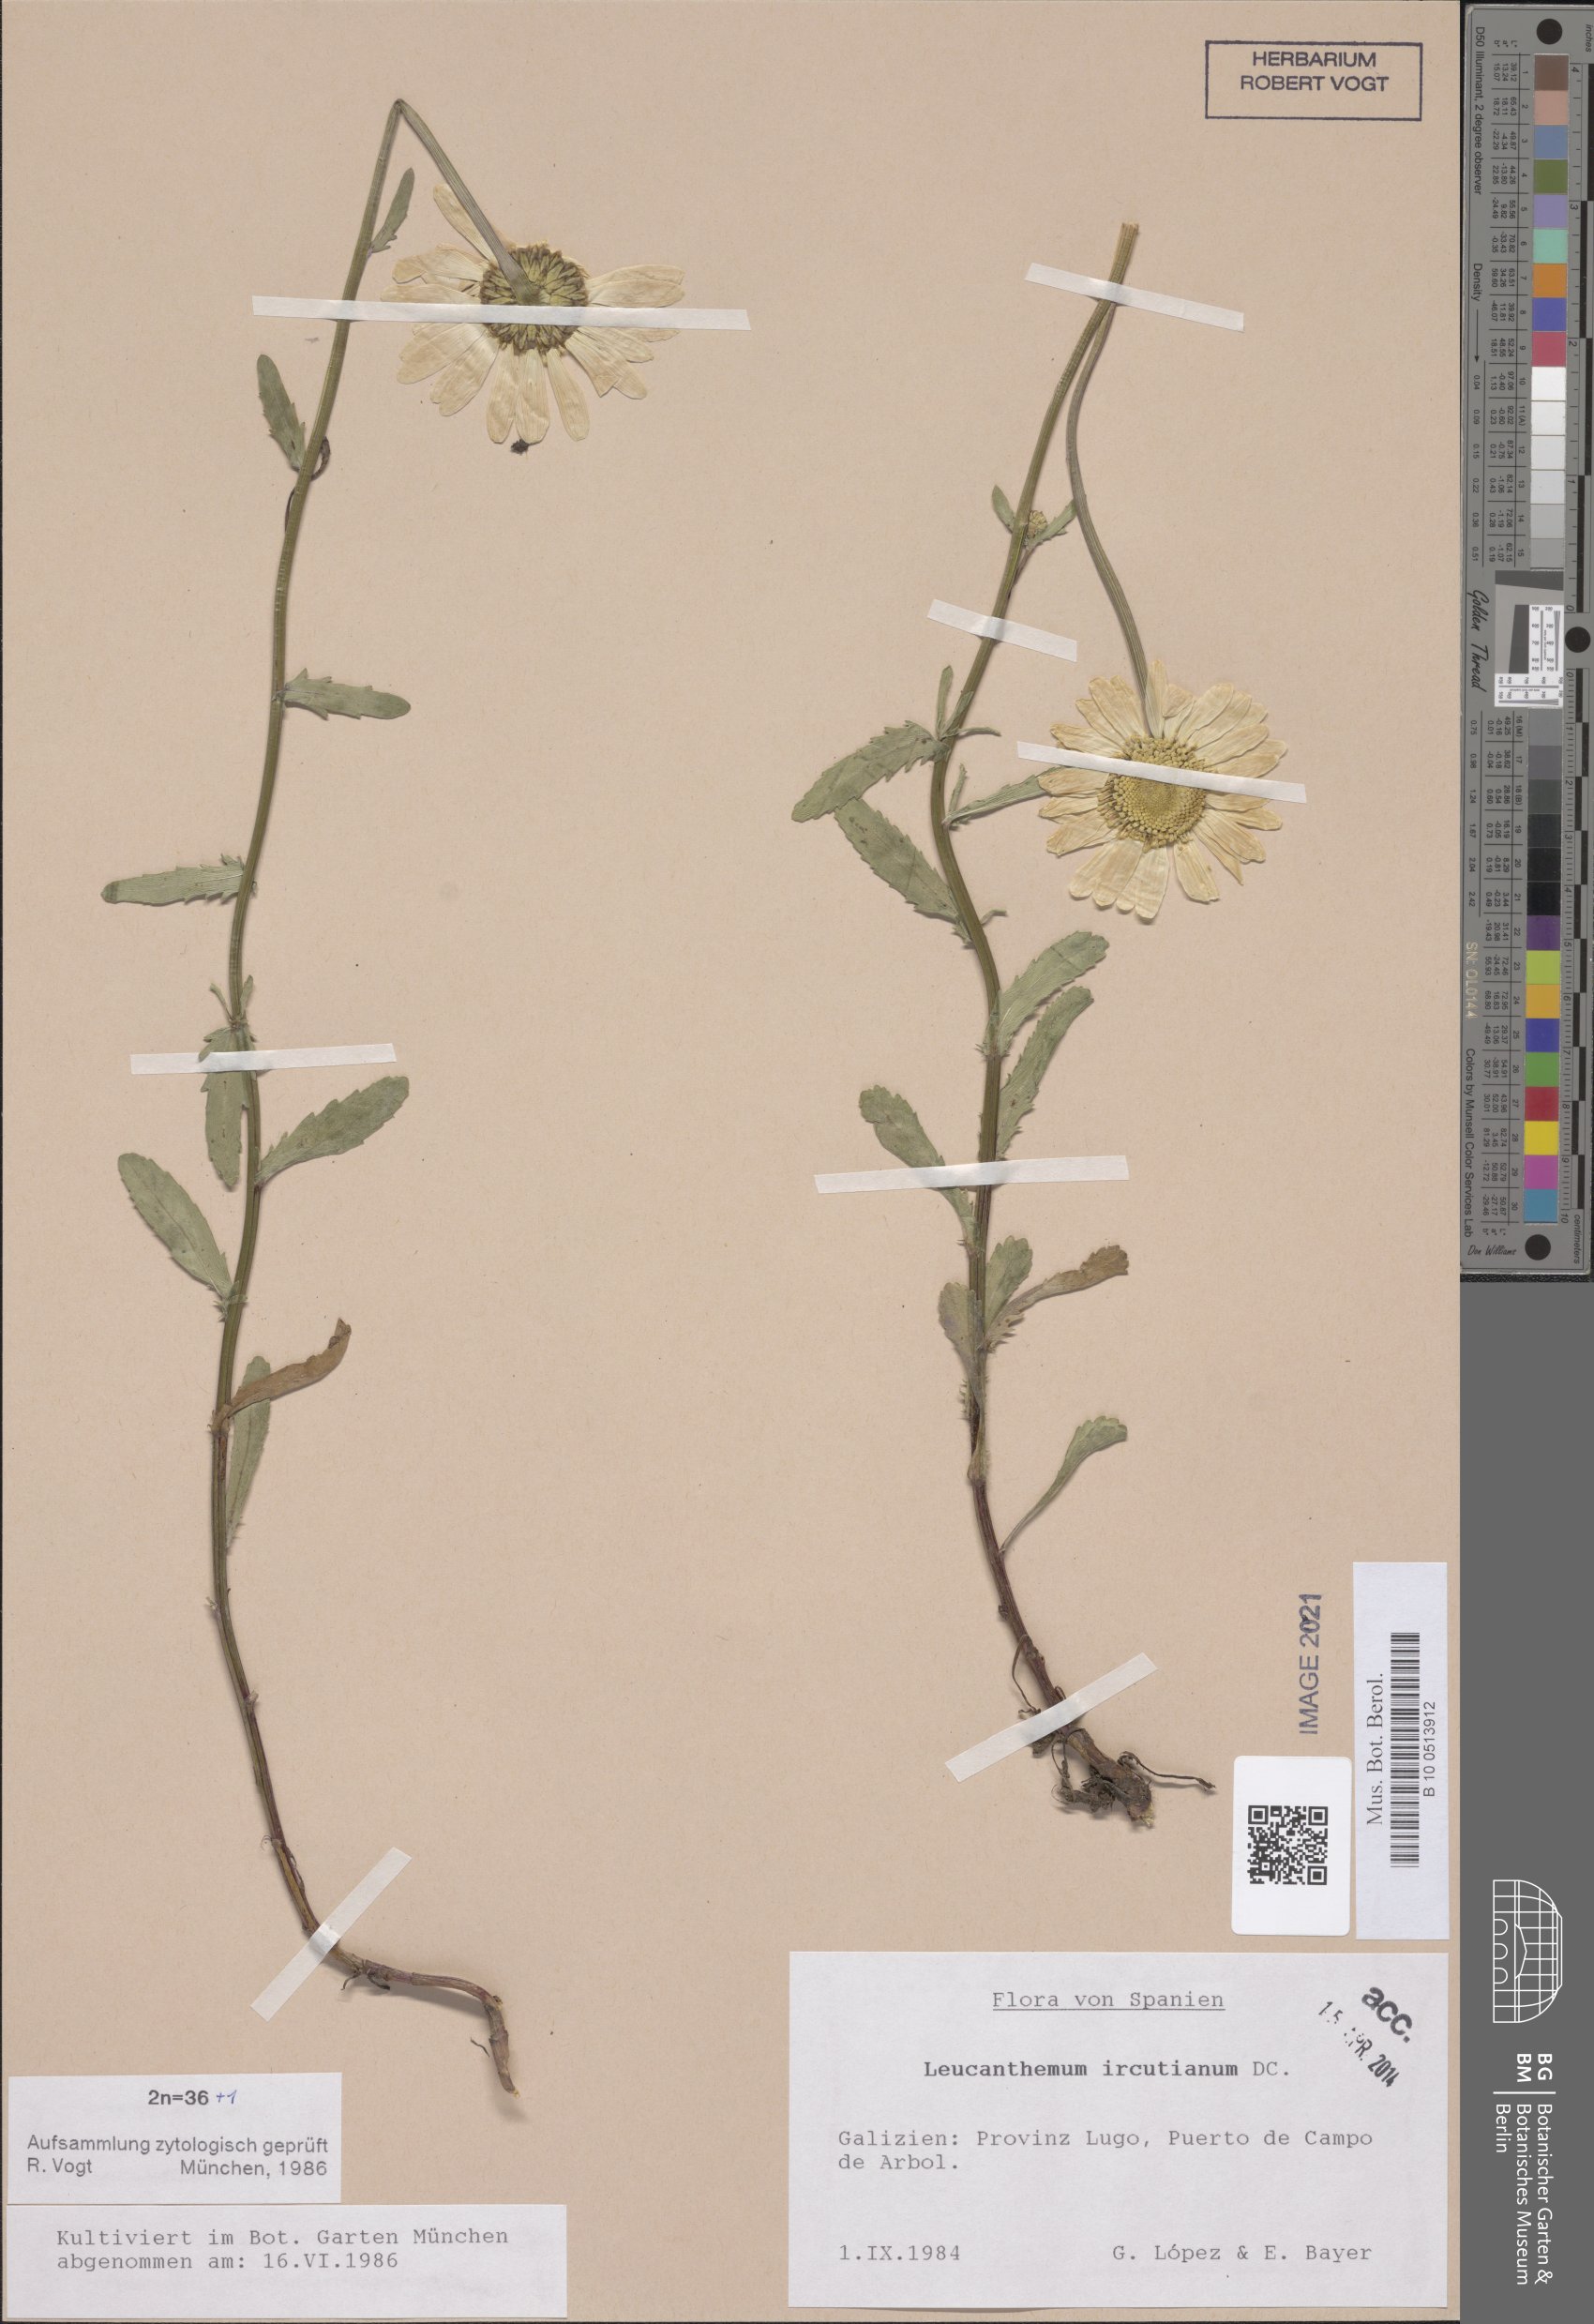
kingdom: Plantae
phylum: Tracheophyta
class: Magnoliopsida
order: Asterales
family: Asteraceae
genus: Leucanthemum
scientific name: Leucanthemum ircutianum
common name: Daisy
